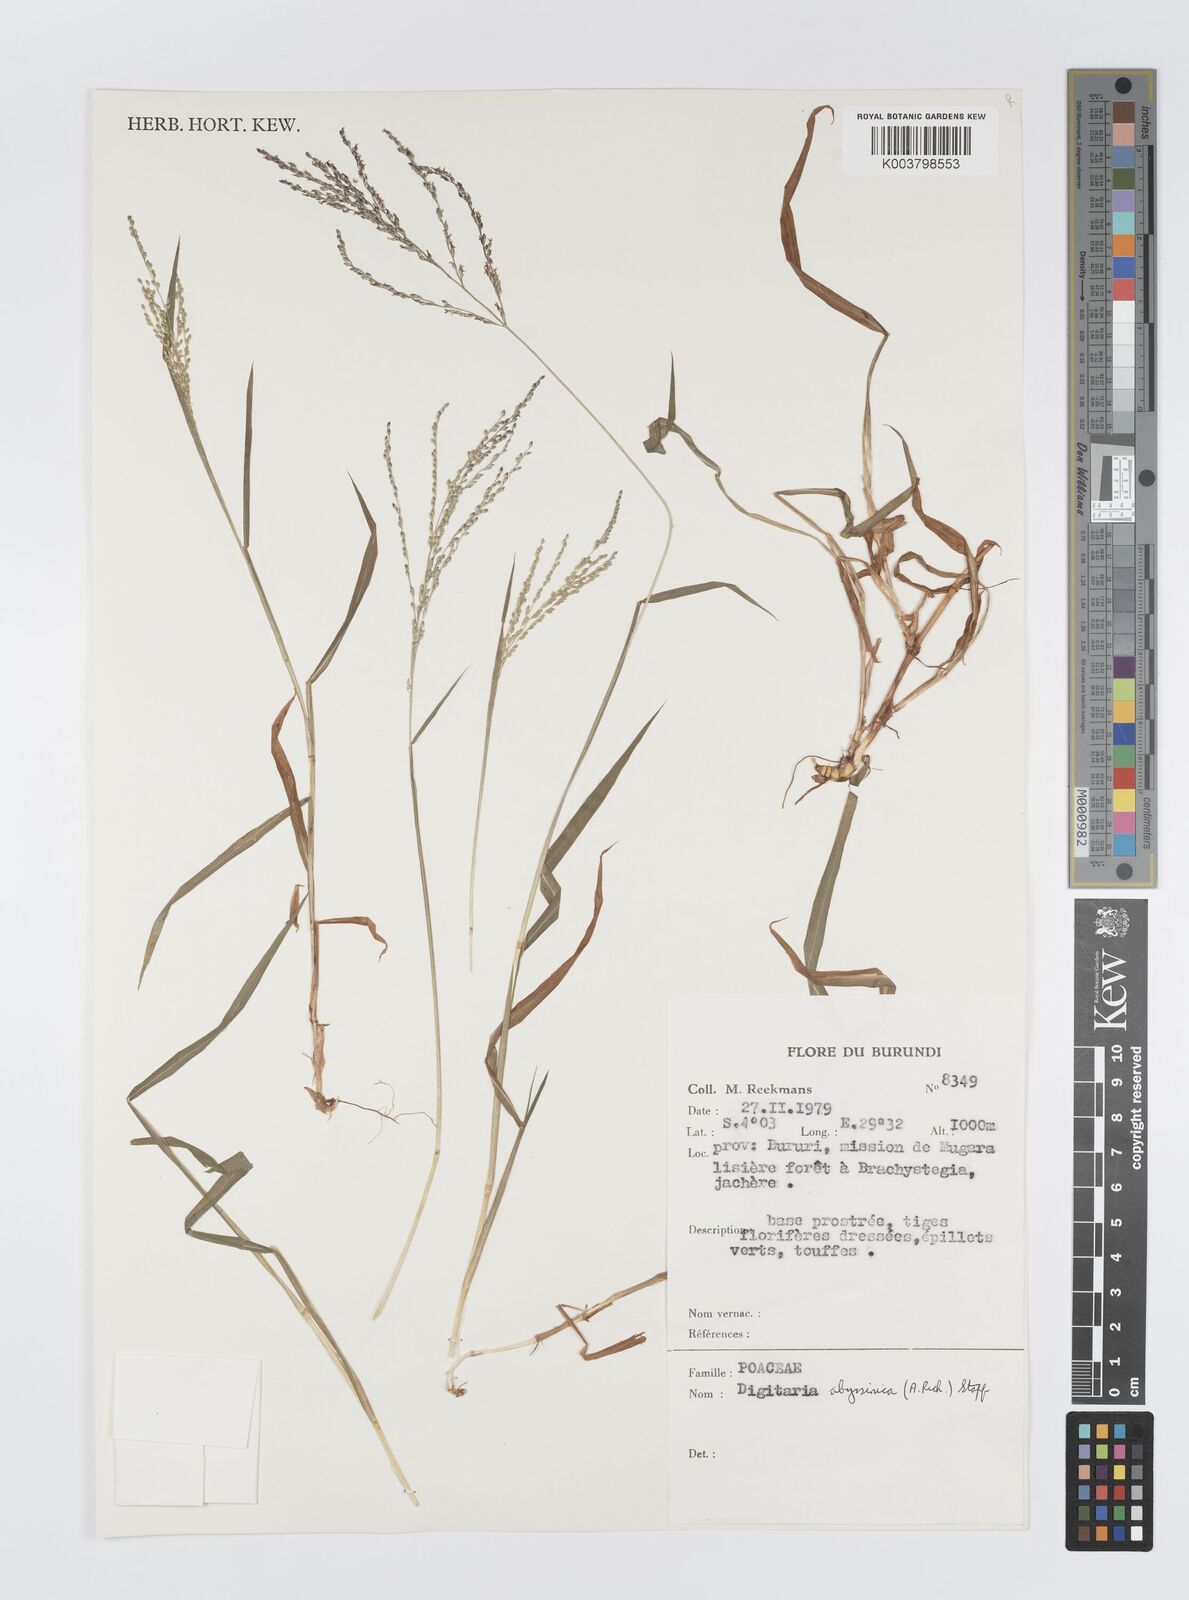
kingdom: Plantae
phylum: Tracheophyta
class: Liliopsida
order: Poales
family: Poaceae
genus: Digitaria
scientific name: Digitaria abyssinica
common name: African couchgrass
